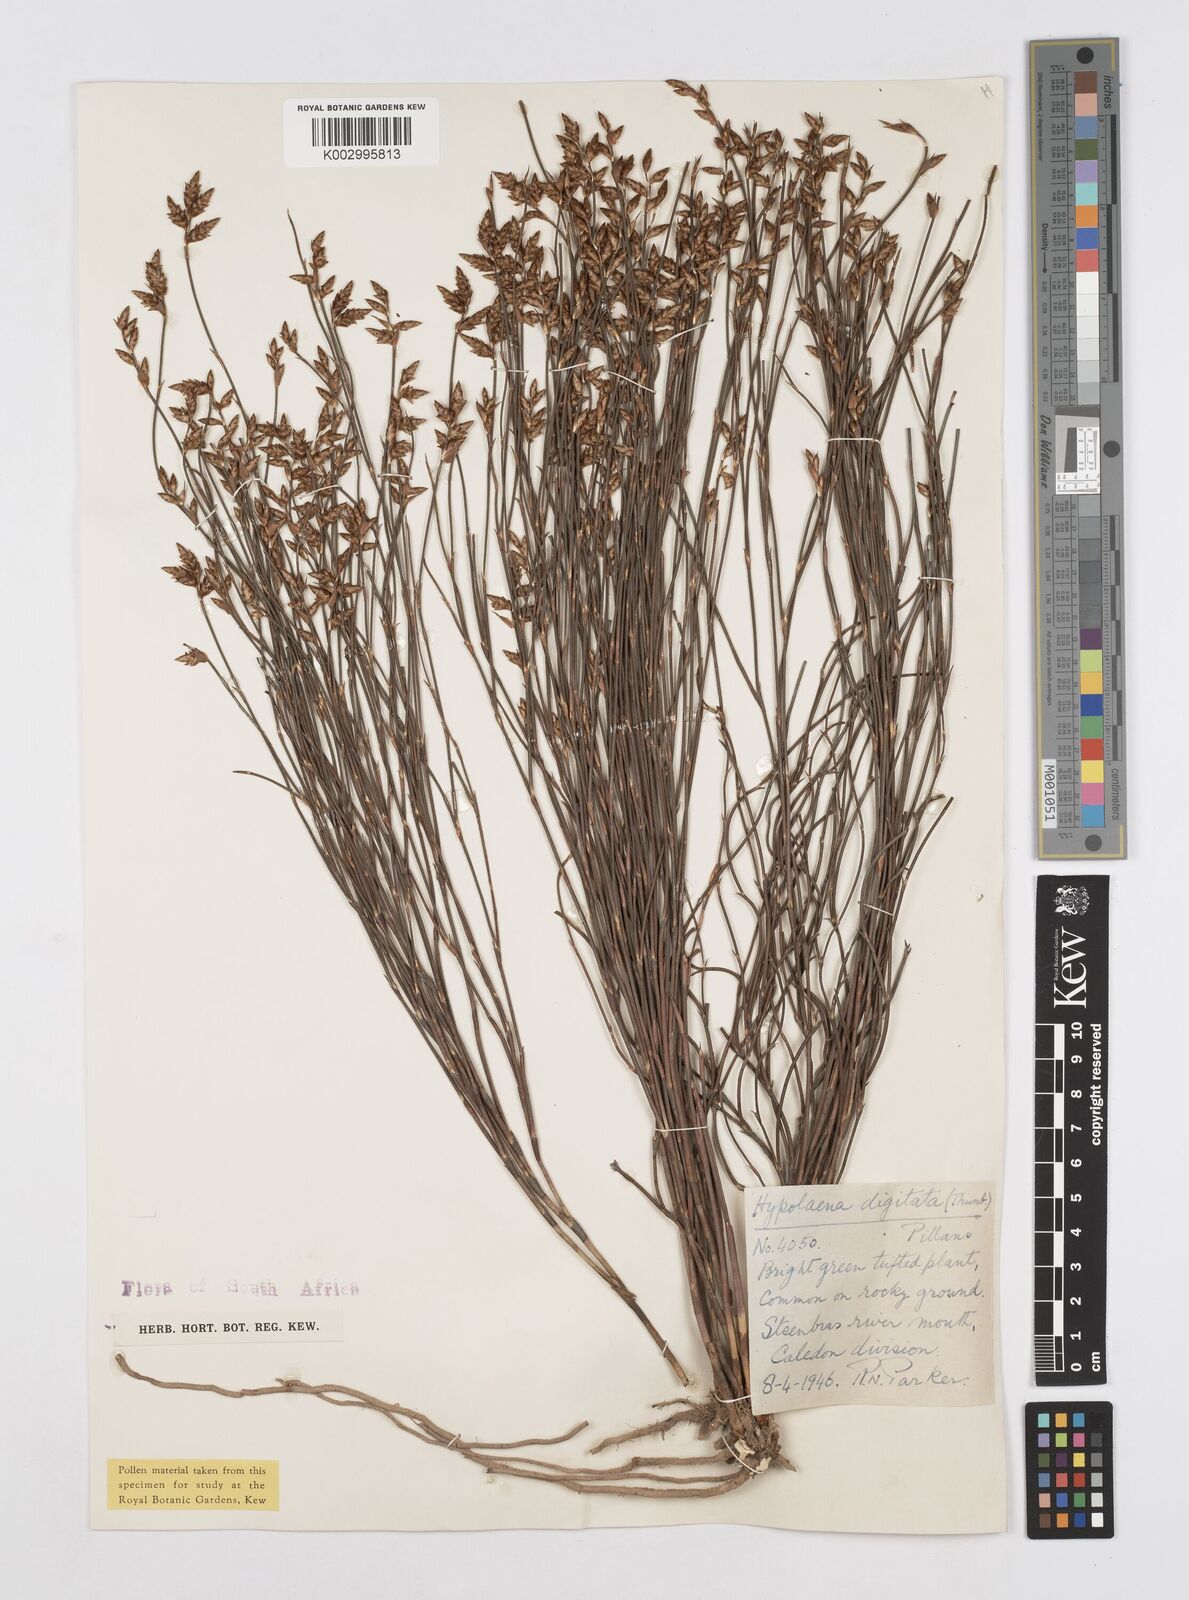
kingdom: Plantae
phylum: Tracheophyta
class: Liliopsida
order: Poales
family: Restionaceae
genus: Mastersiella
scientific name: Mastersiella digitata
